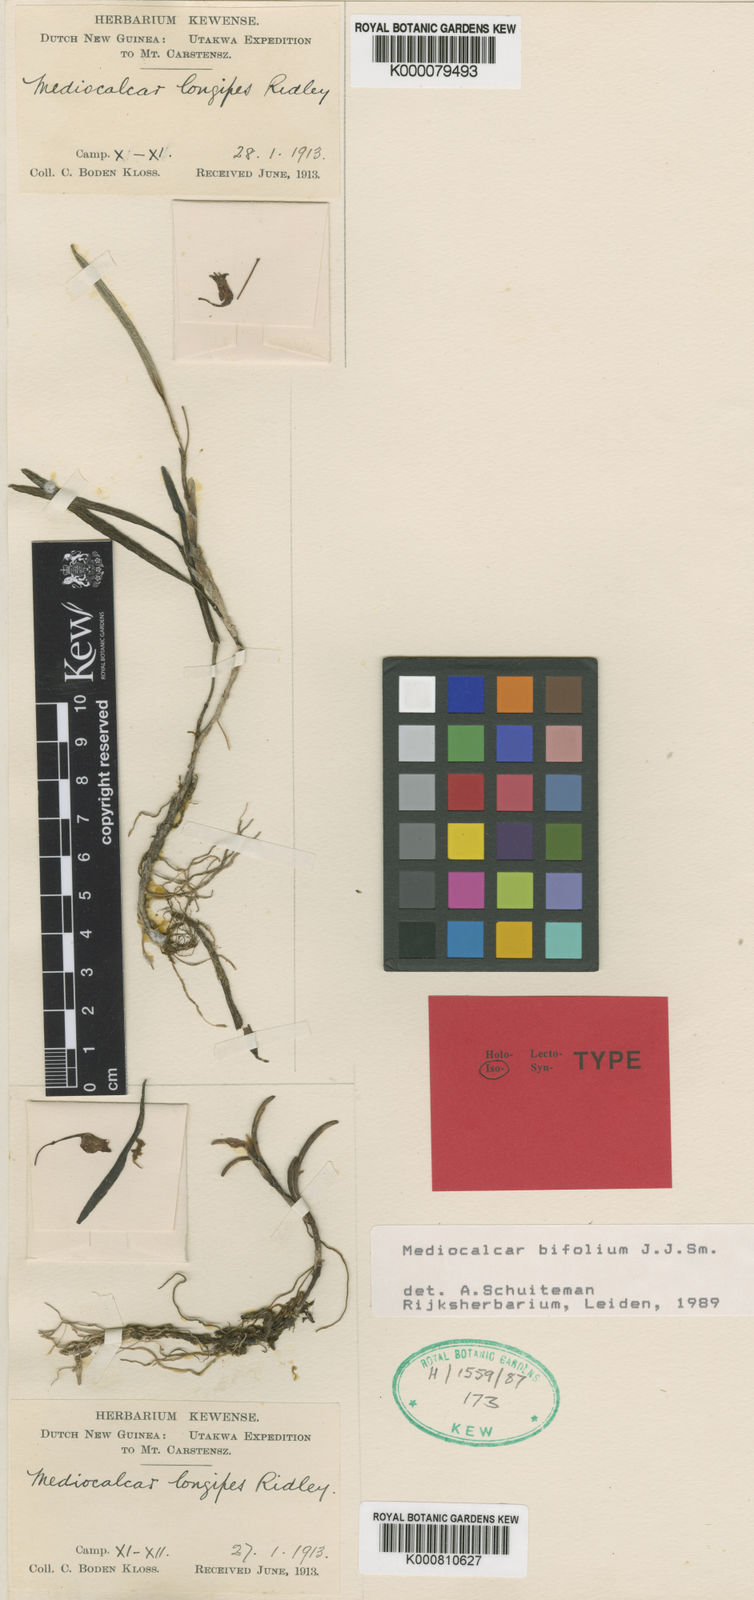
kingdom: Plantae
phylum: Tracheophyta
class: Liliopsida
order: Asparagales
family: Orchidaceae
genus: Mediocalcar
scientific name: Mediocalcar bifolium
